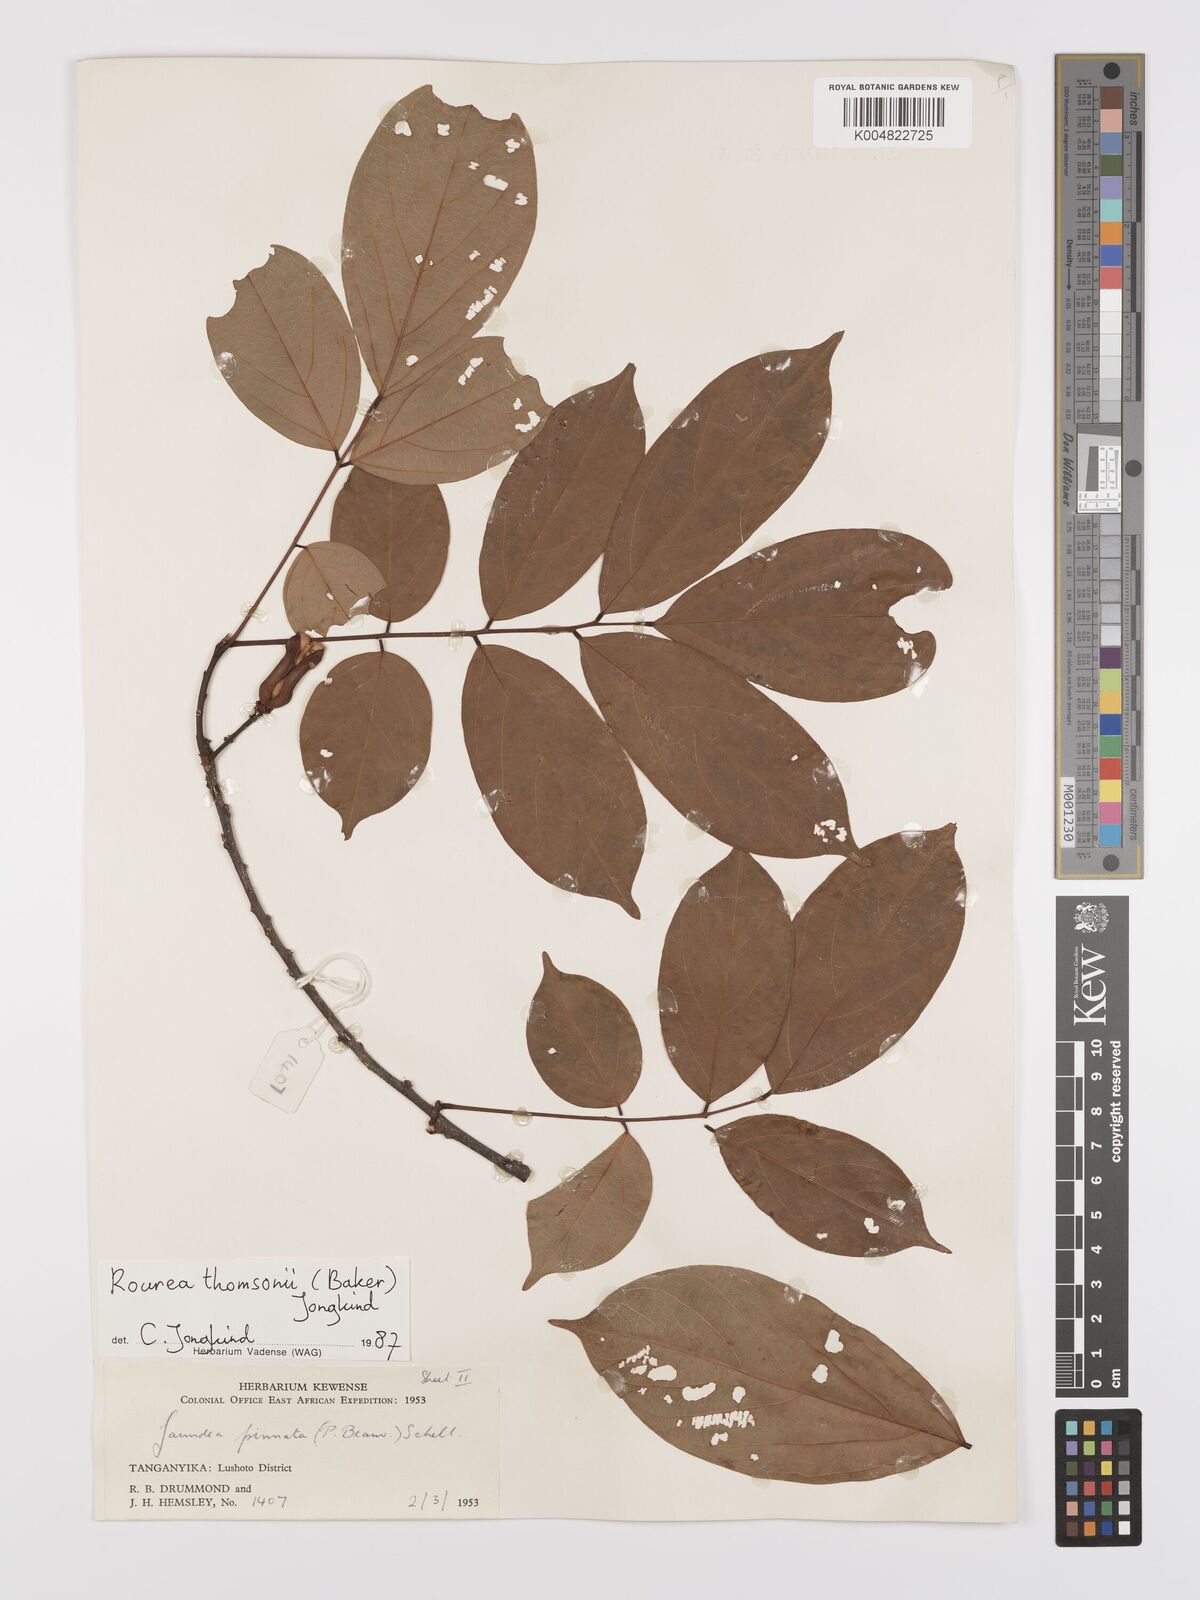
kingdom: Plantae
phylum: Tracheophyta
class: Magnoliopsida
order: Oxalidales
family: Connaraceae
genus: Rourea
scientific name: Rourea pinnata
